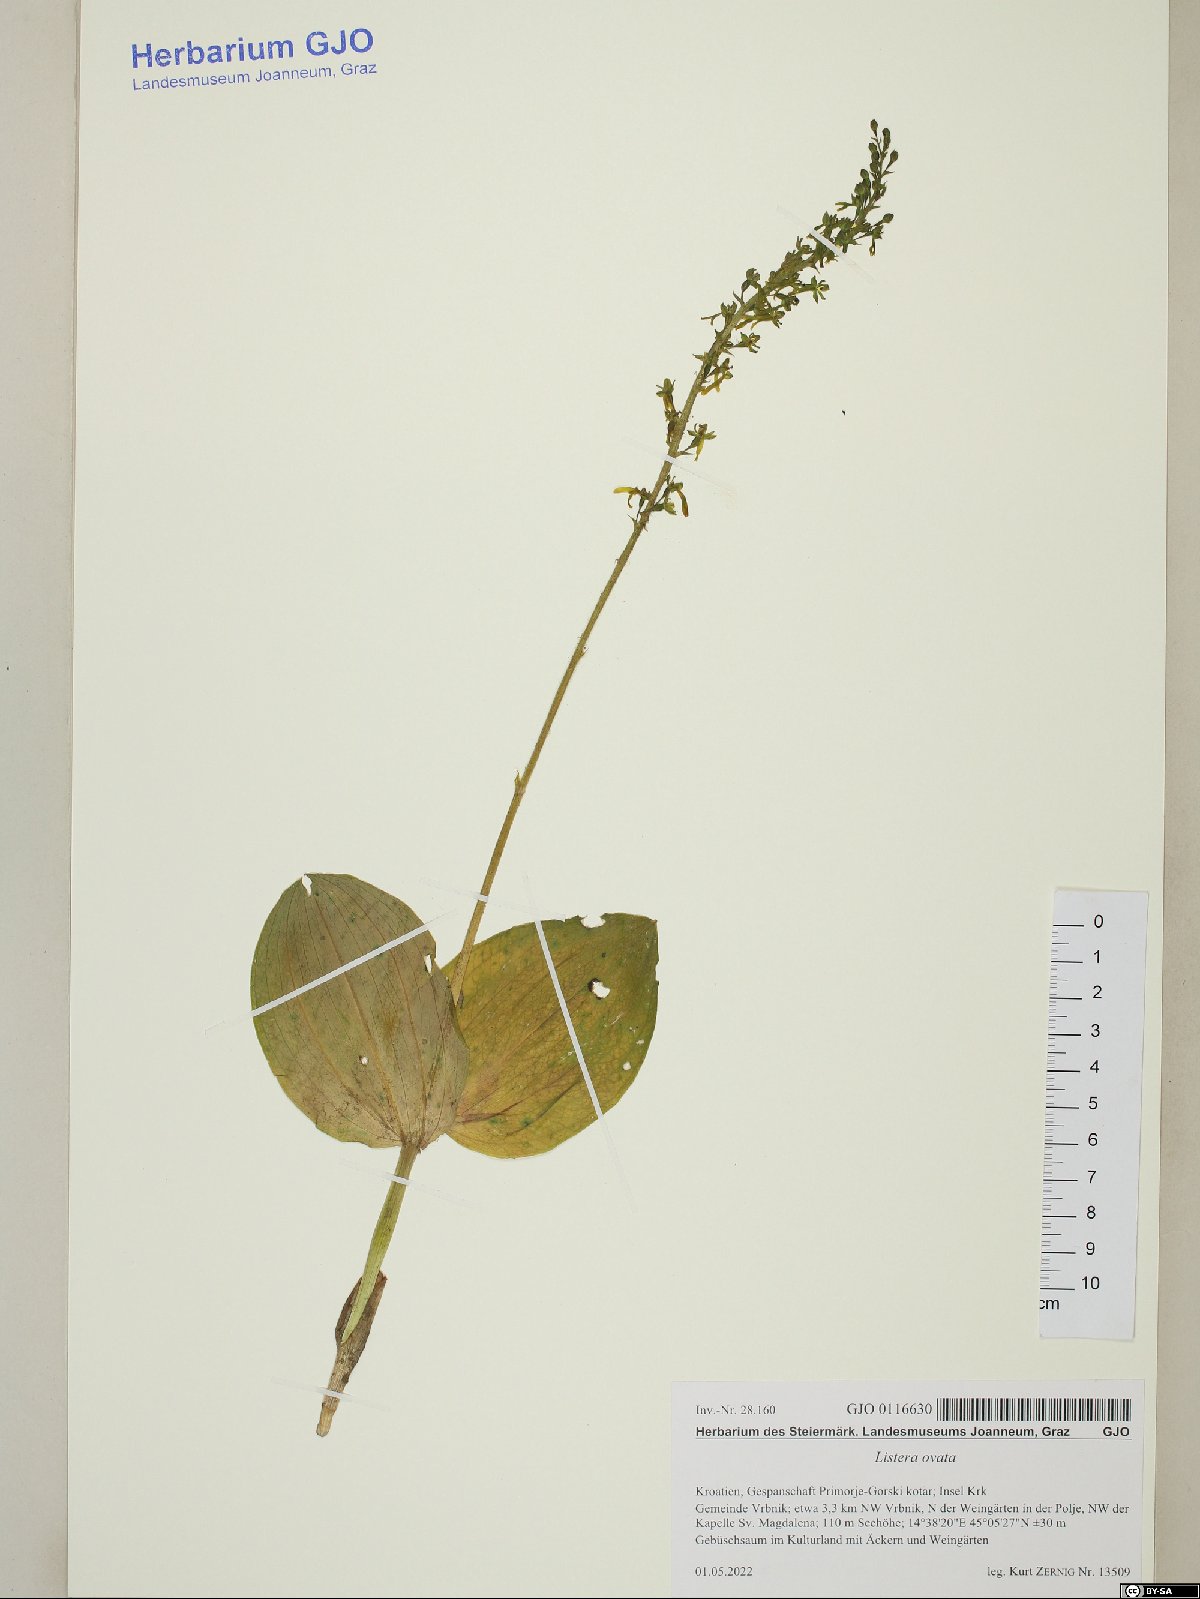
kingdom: Plantae
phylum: Tracheophyta
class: Liliopsida
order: Asparagales
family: Orchidaceae
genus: Neottia
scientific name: Neottia ovata
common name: Common twayblade
